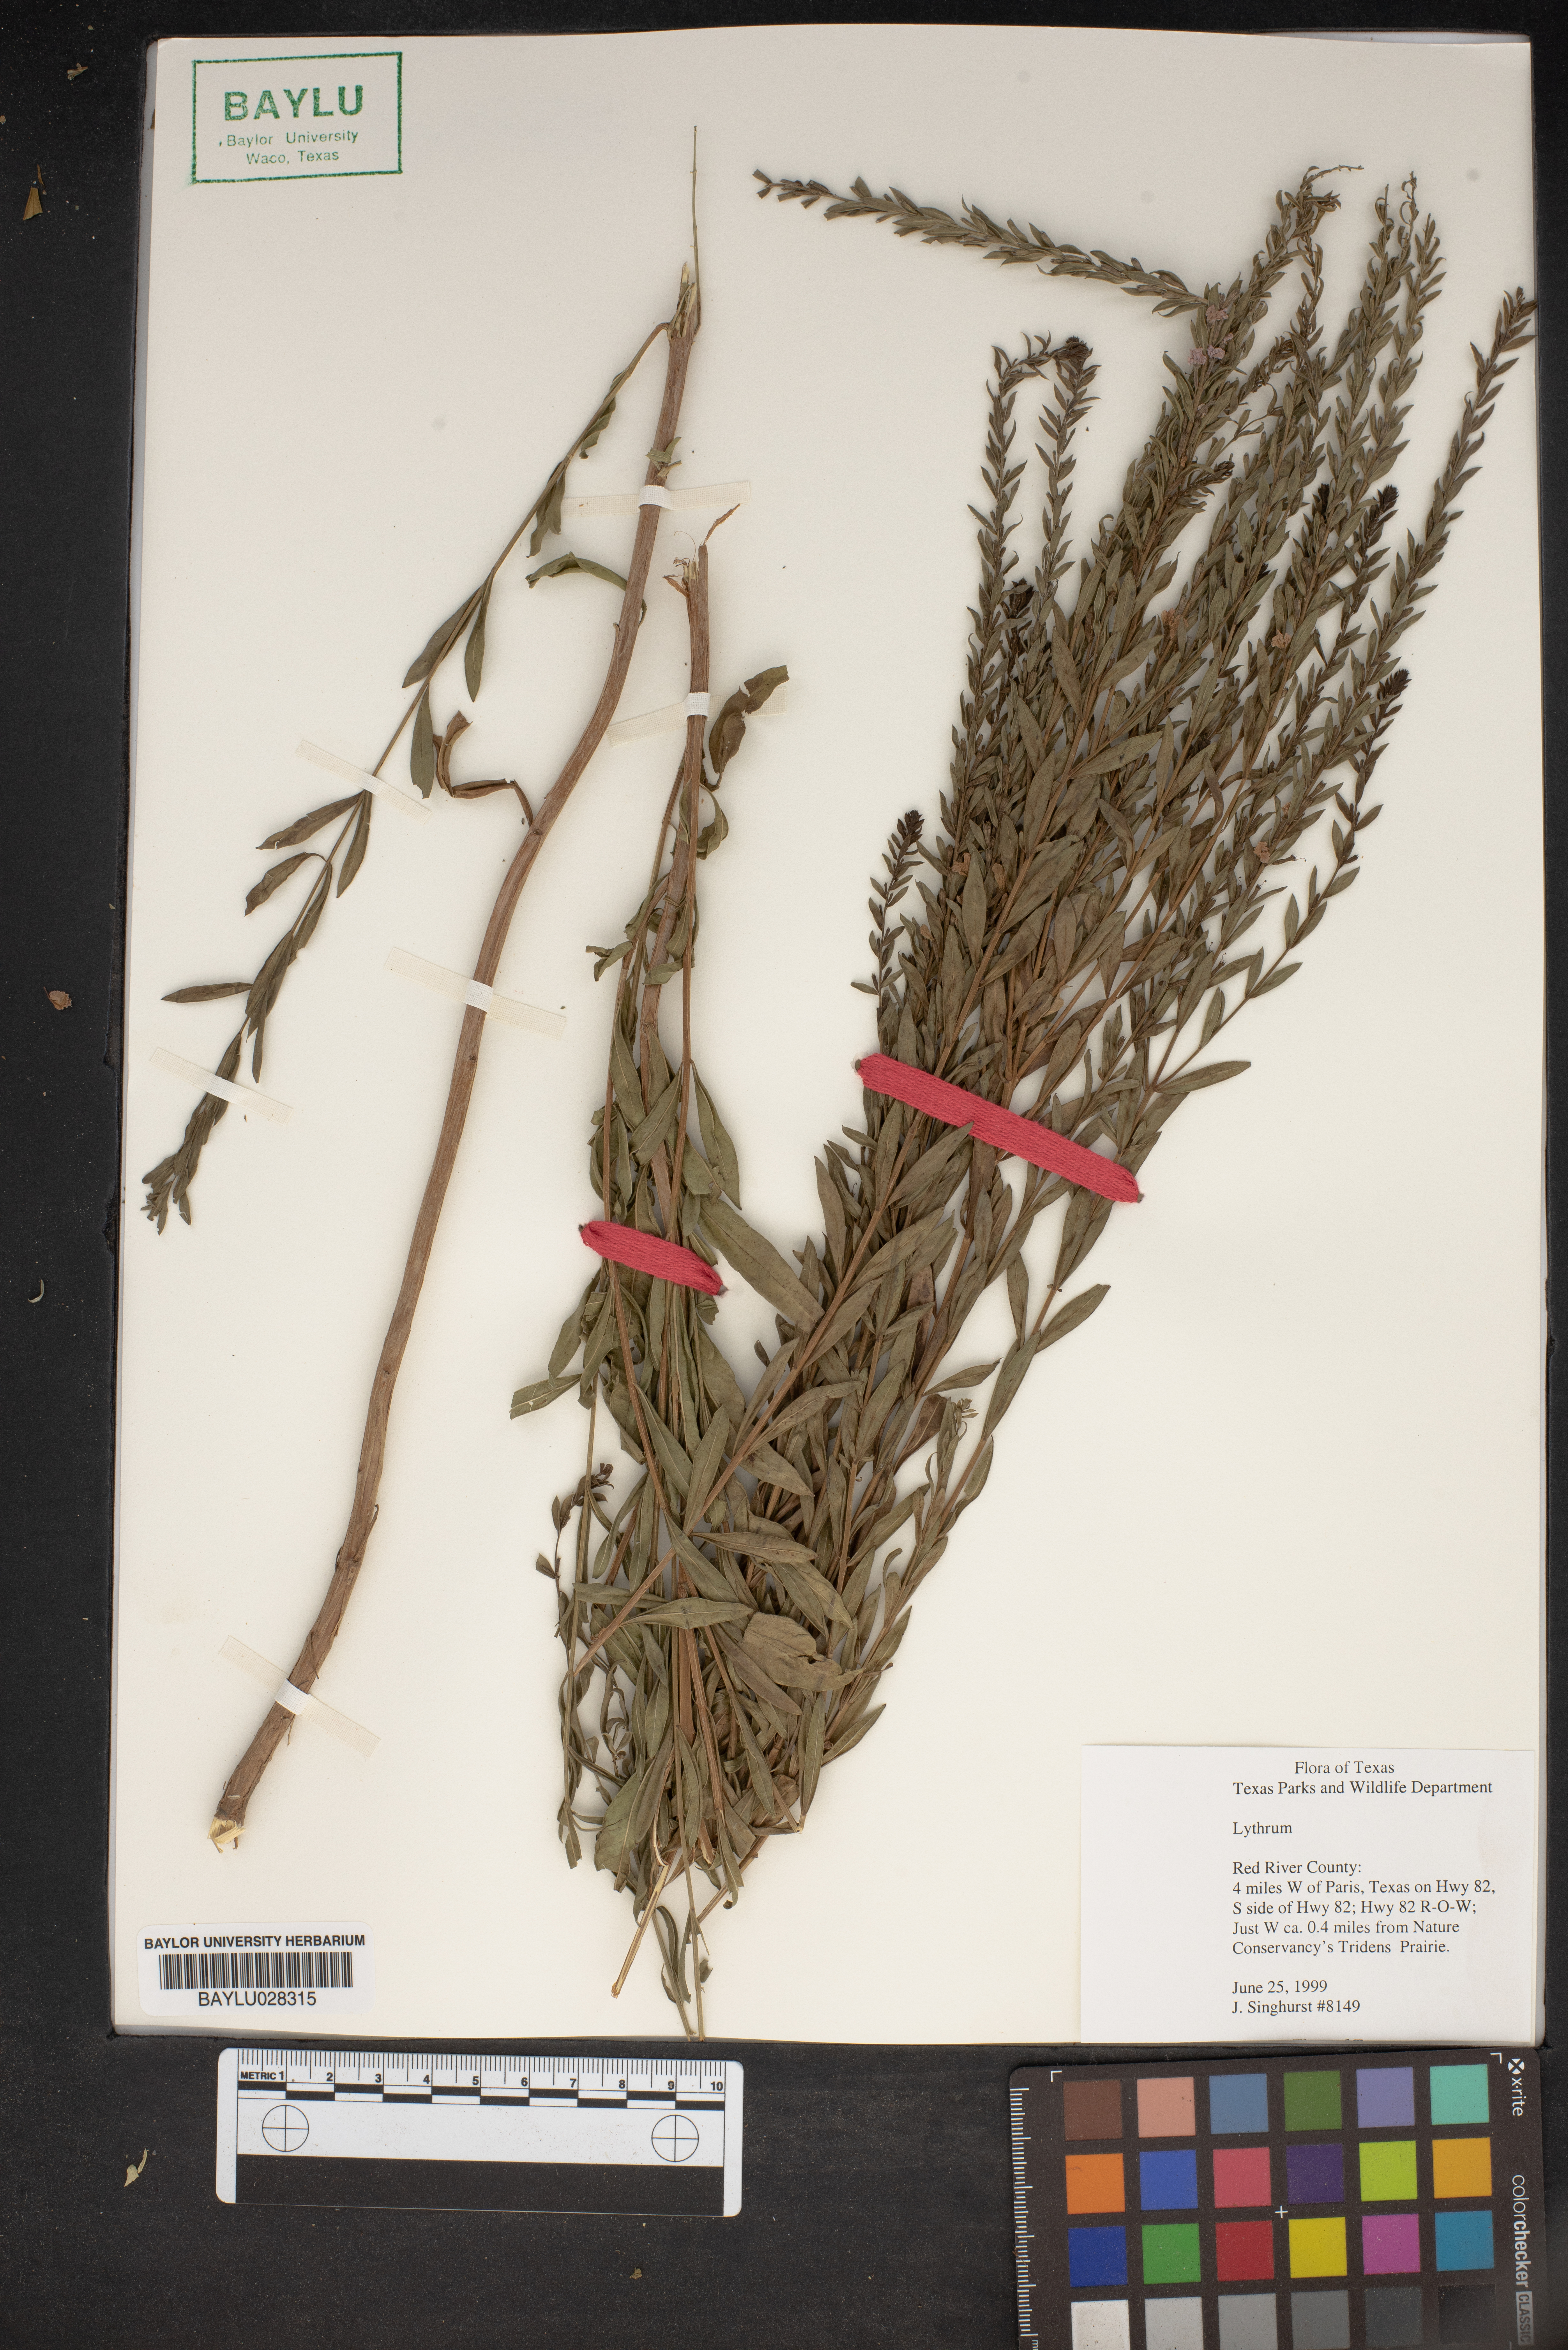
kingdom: Plantae
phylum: Tracheophyta
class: Magnoliopsida
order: Myrtales
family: Lythraceae
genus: Lythrum
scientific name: Lythrum
